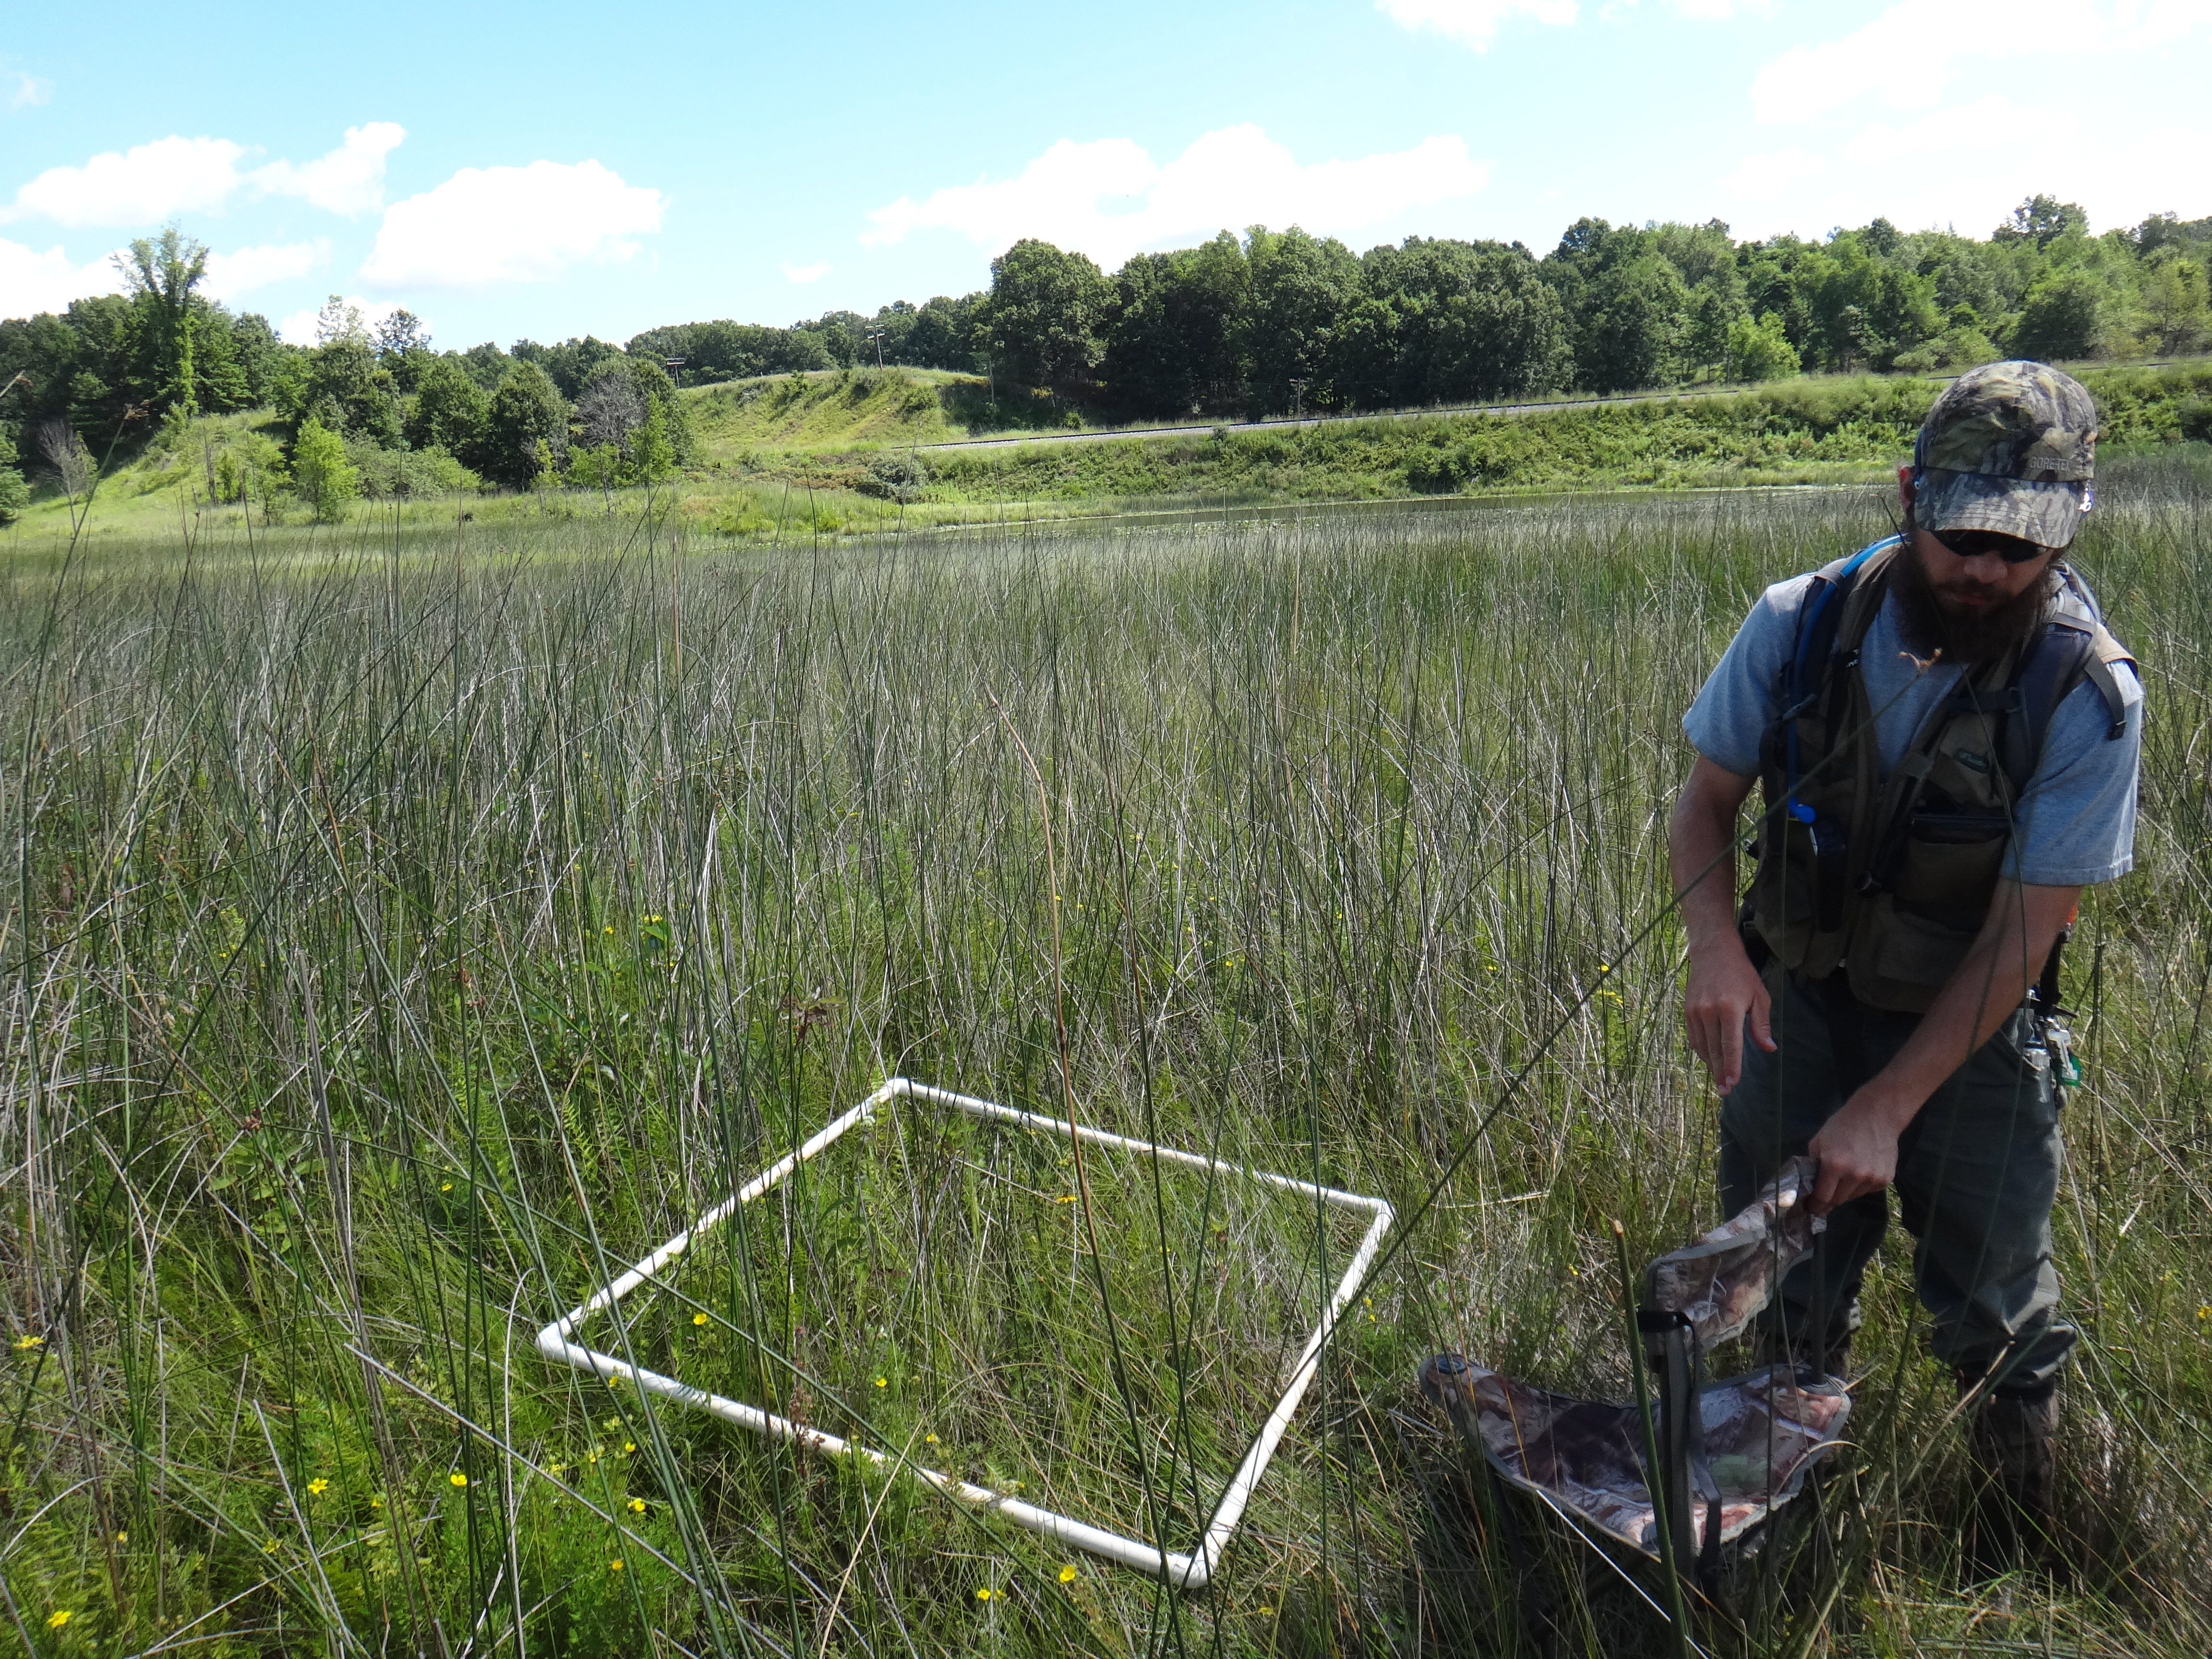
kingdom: Plantae
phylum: Tracheophyta
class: Magnoliopsida
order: Asterales
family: Asteraceae
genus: Eupatorium
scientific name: Eupatorium perfoliatum
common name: Boneset
